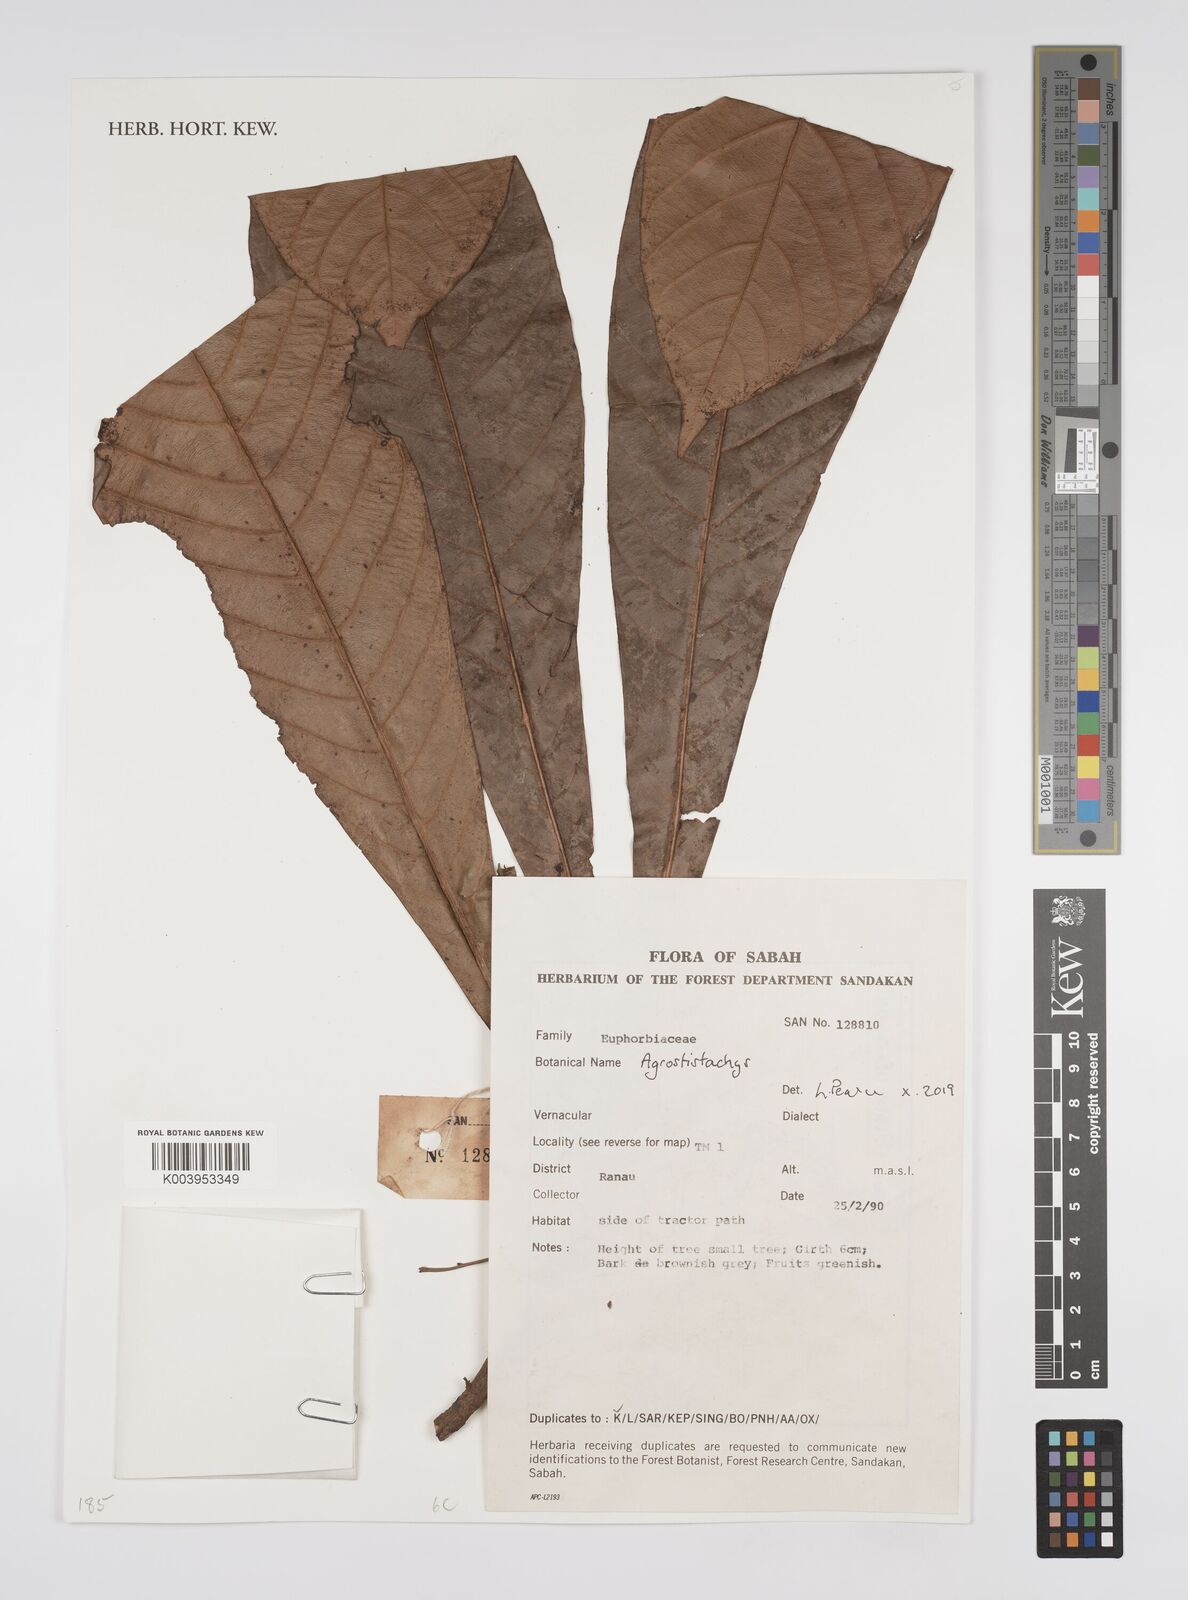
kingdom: Plantae
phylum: Tracheophyta
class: Magnoliopsida
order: Malpighiales
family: Euphorbiaceae
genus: Agrostistachys
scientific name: Agrostistachys
